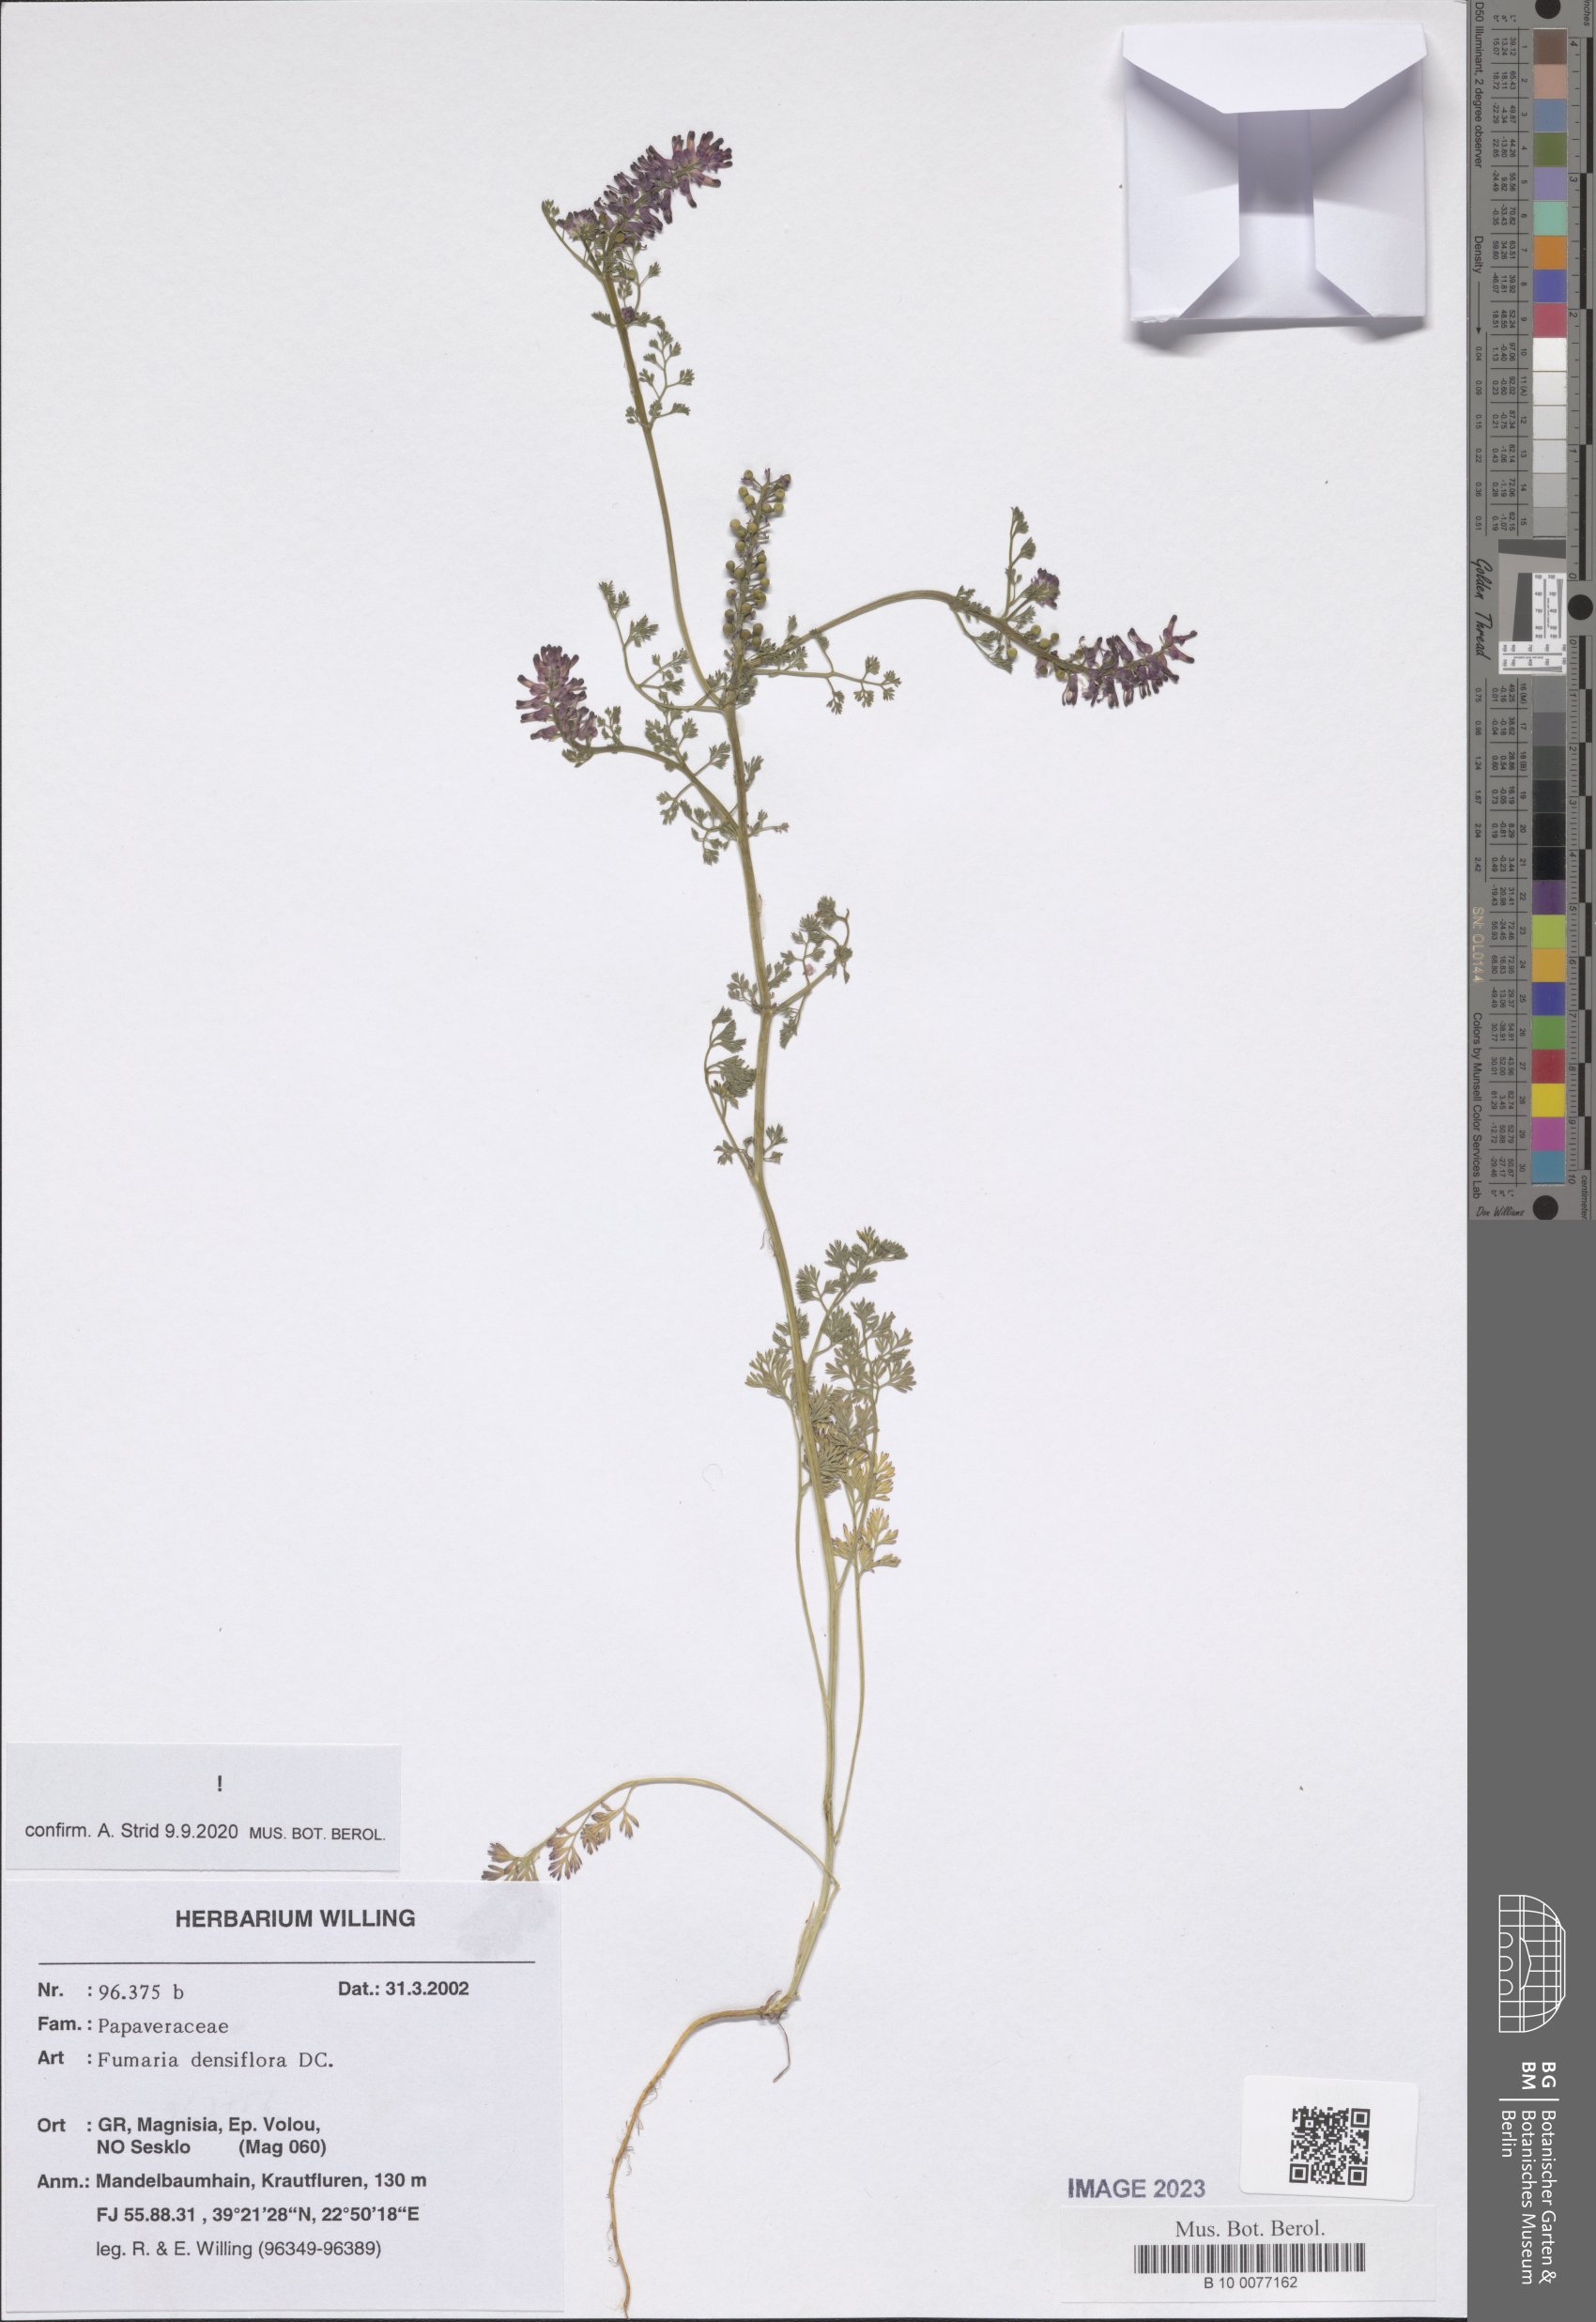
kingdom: Plantae
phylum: Tracheophyta
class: Magnoliopsida
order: Ranunculales
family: Papaveraceae
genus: Fumaria
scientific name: Fumaria densiflora
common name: Dense-flowered fumitory
